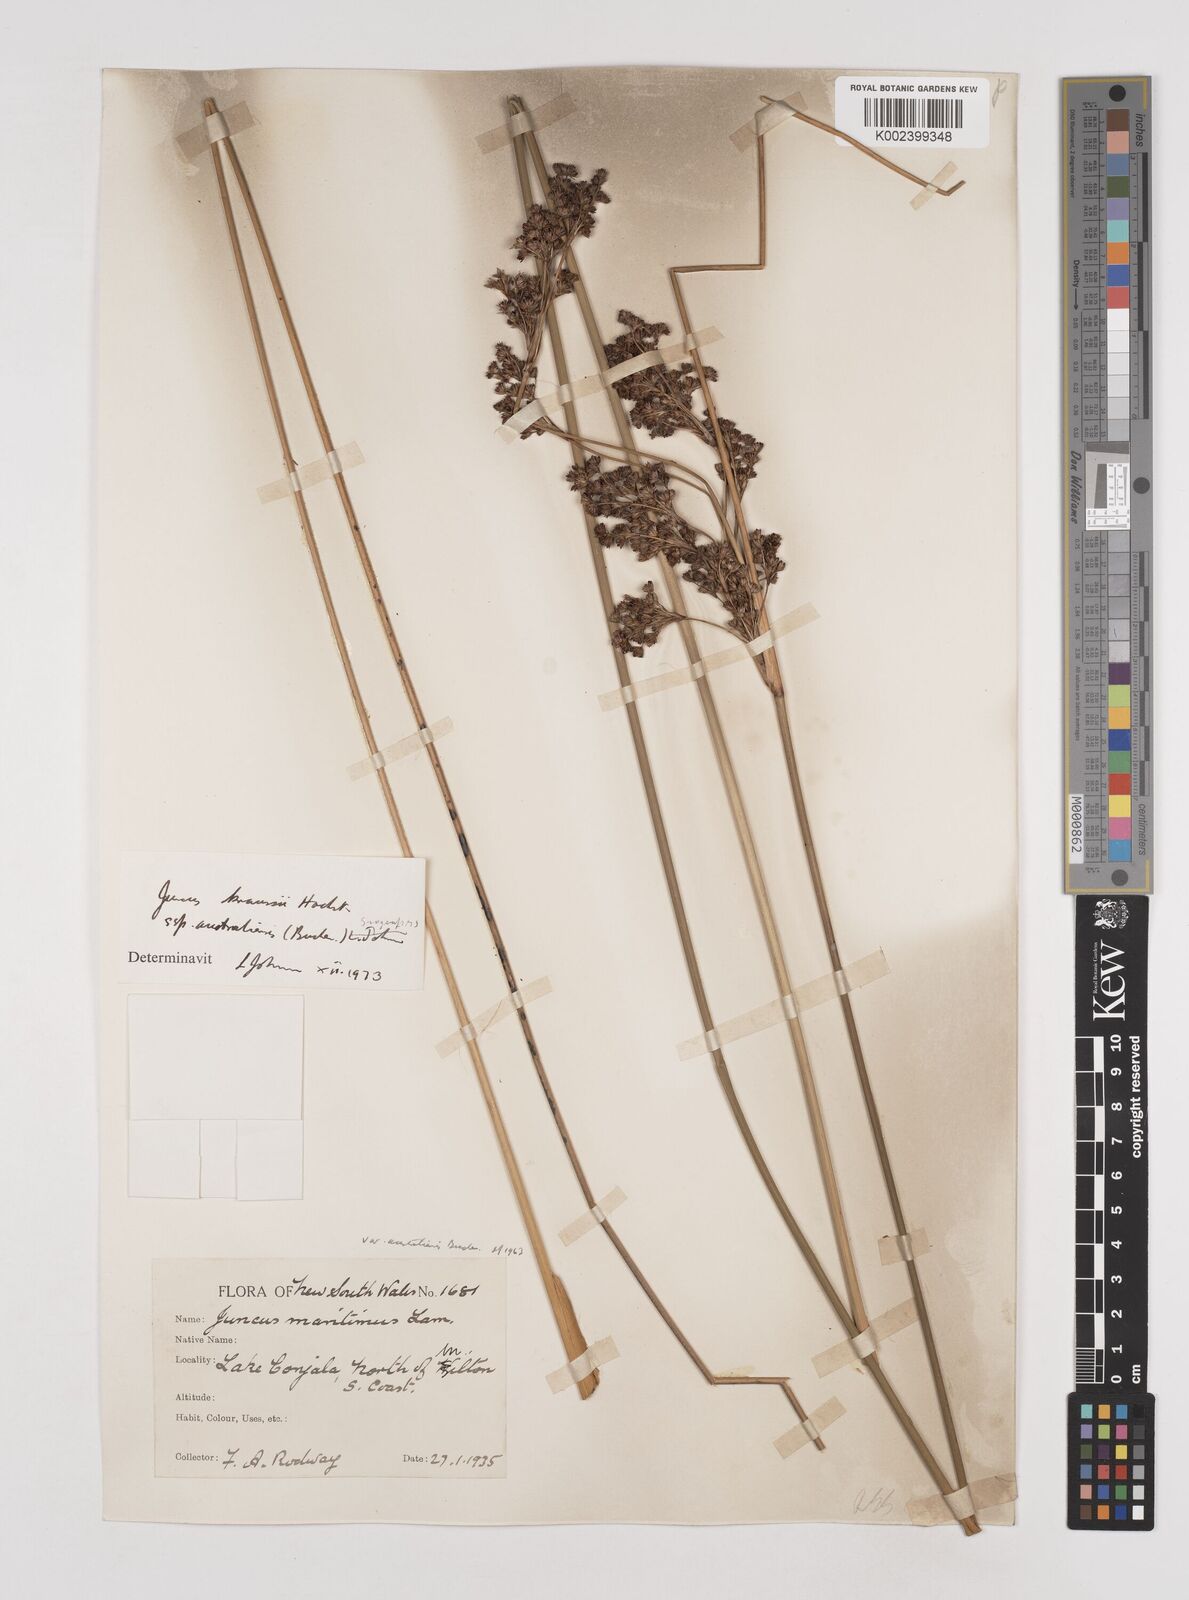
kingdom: Plantae
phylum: Tracheophyta
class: Liliopsida
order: Poales
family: Juncaceae
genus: Juncus
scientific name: Juncus kraussii
